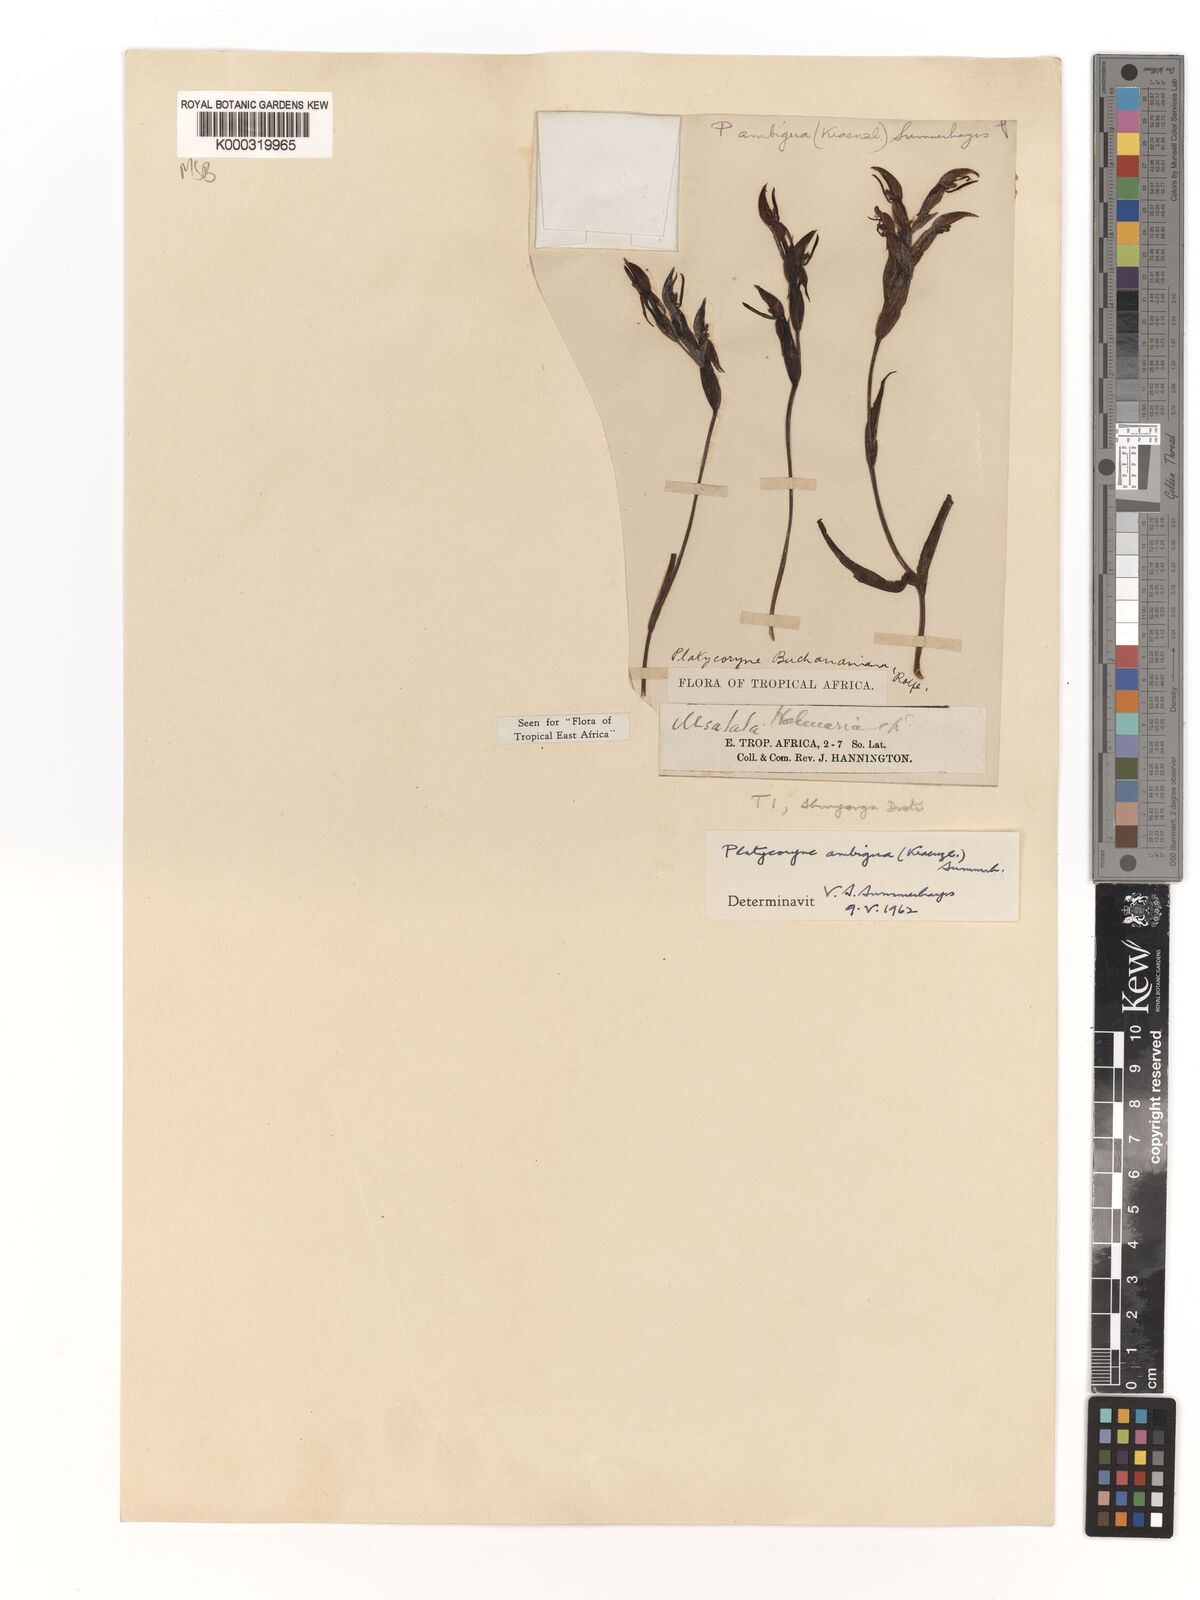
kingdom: Plantae
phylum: Tracheophyta
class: Liliopsida
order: Asparagales
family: Orchidaceae
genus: Platycoryne
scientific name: Platycoryne ambigua
